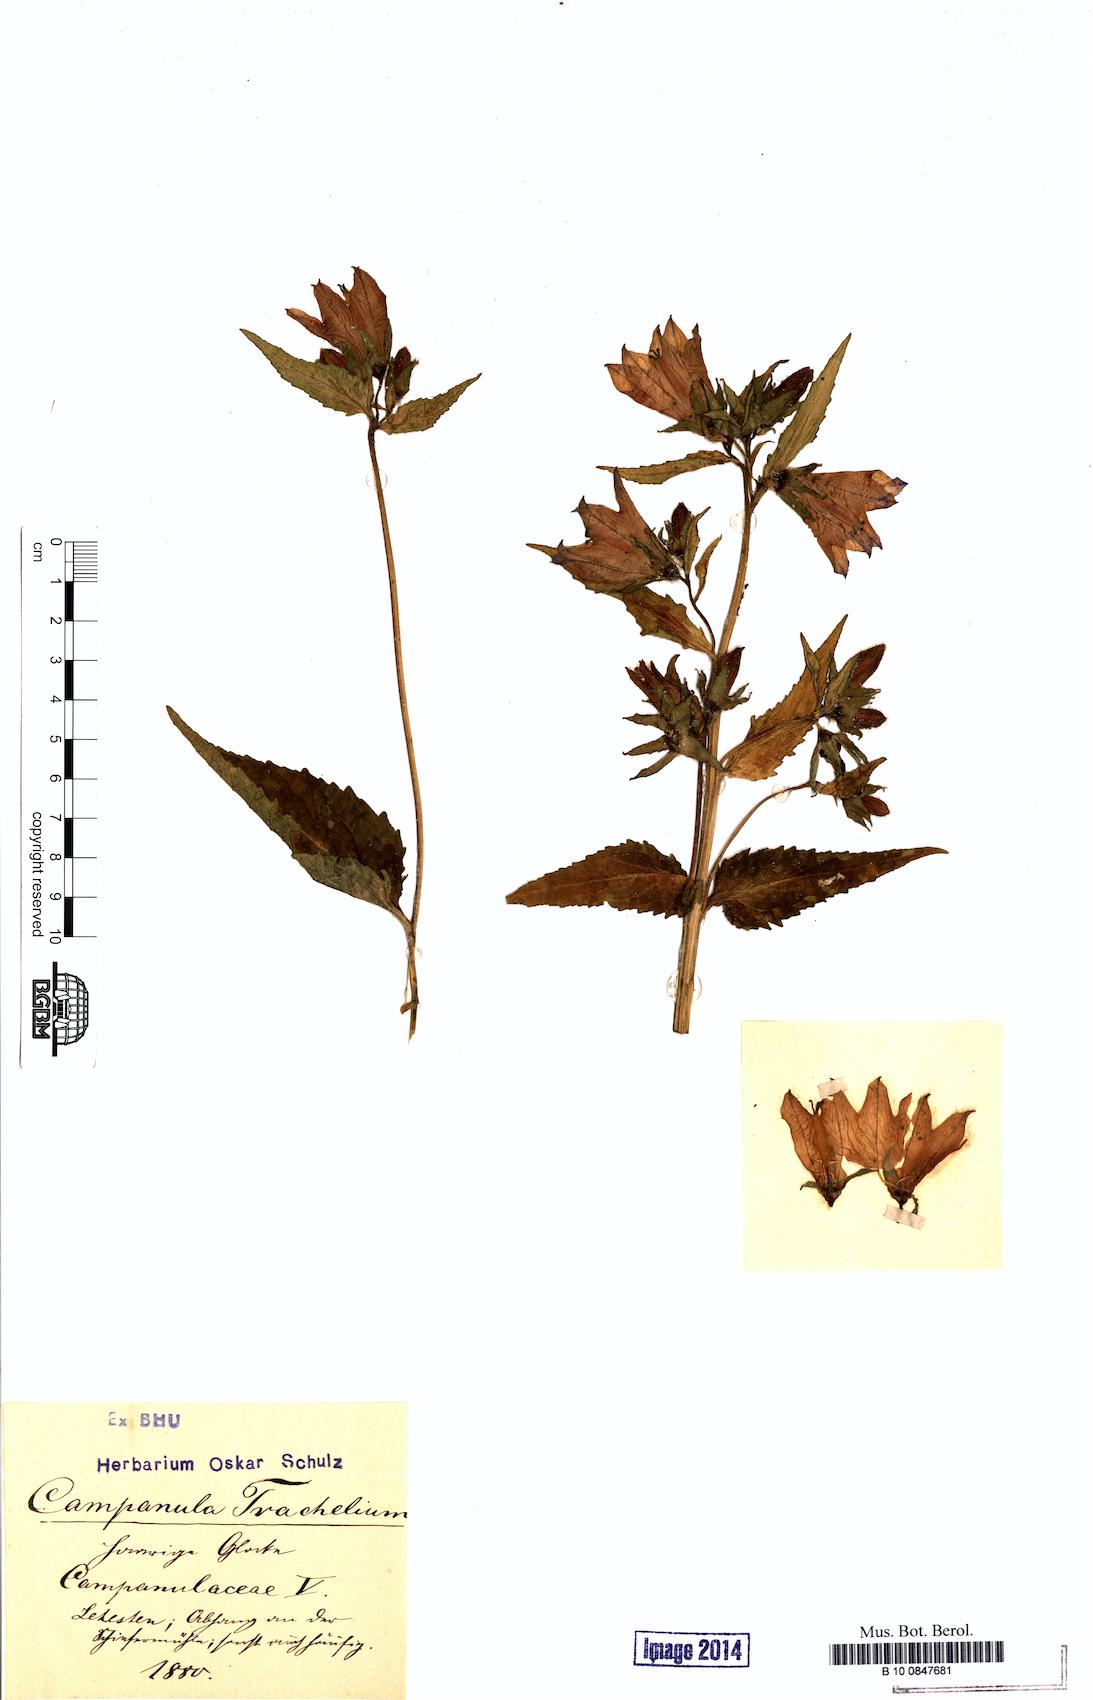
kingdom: Plantae
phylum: Tracheophyta
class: Magnoliopsida
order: Asterales
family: Campanulaceae
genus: Campanula
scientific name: Campanula trachelium
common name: Nettle-leaved bellflower
